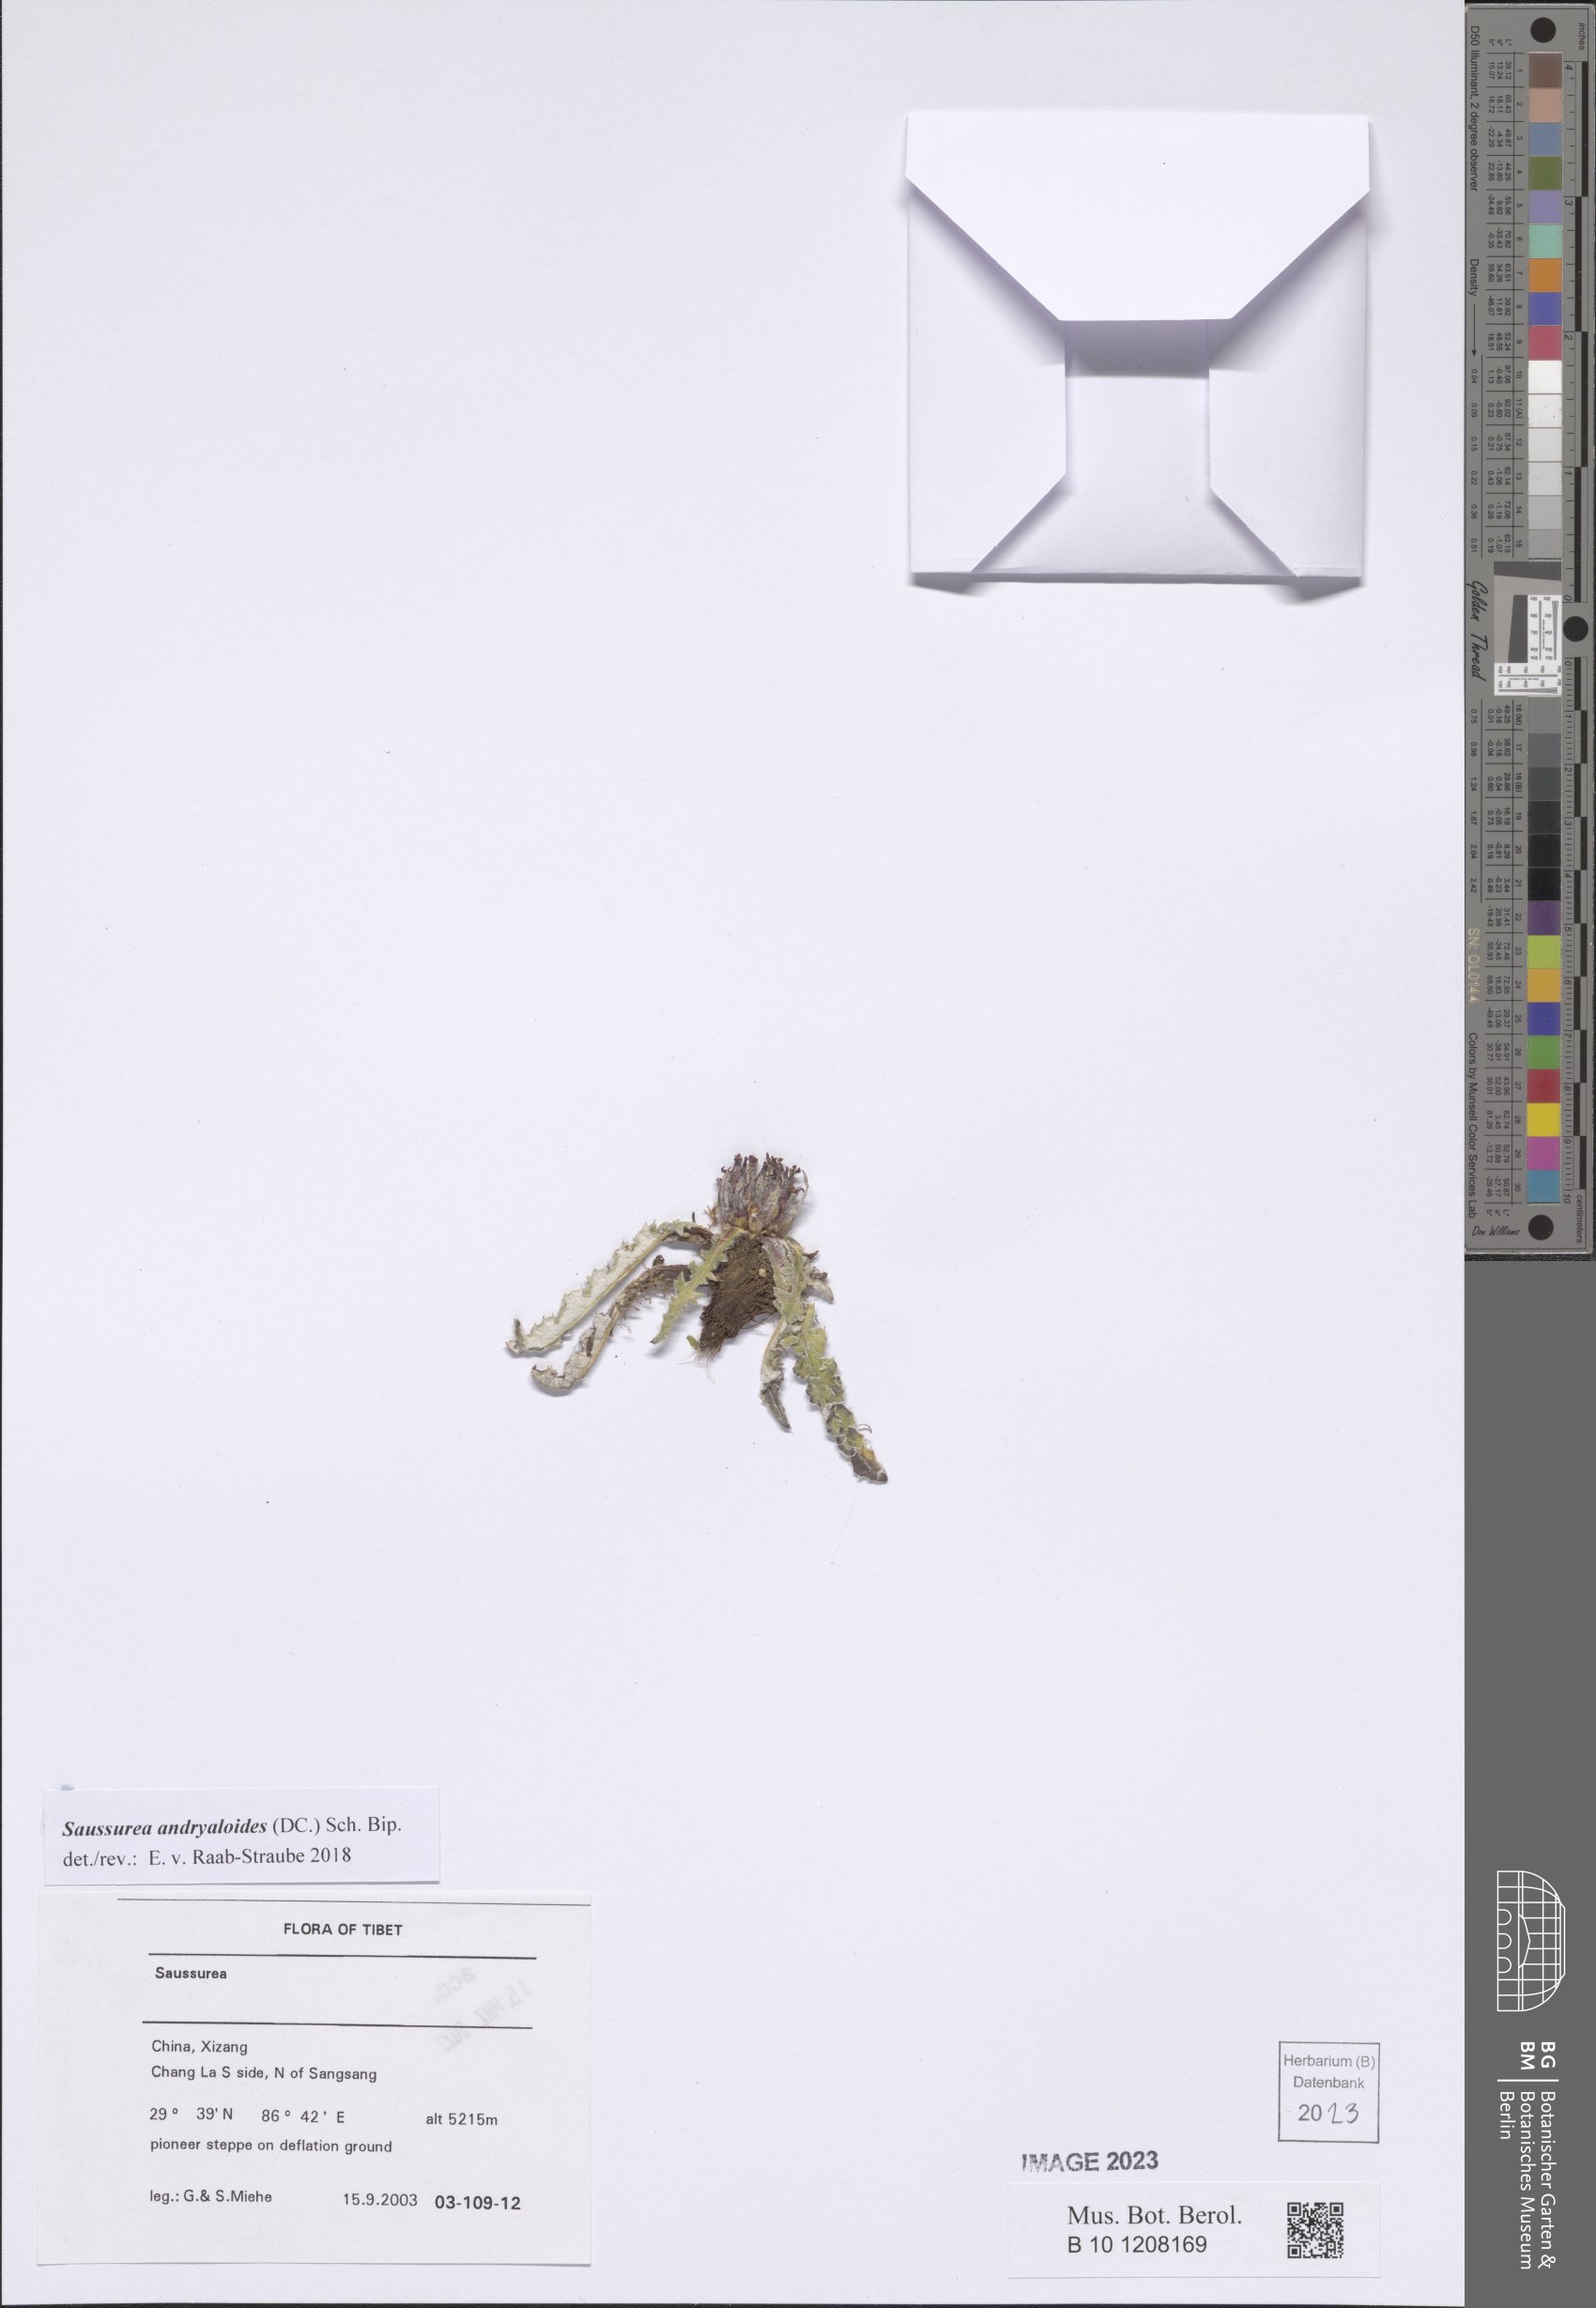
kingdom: Plantae
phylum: Tracheophyta
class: Magnoliopsida
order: Asterales
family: Asteraceae
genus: Saussurea
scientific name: Saussurea andryaloides
